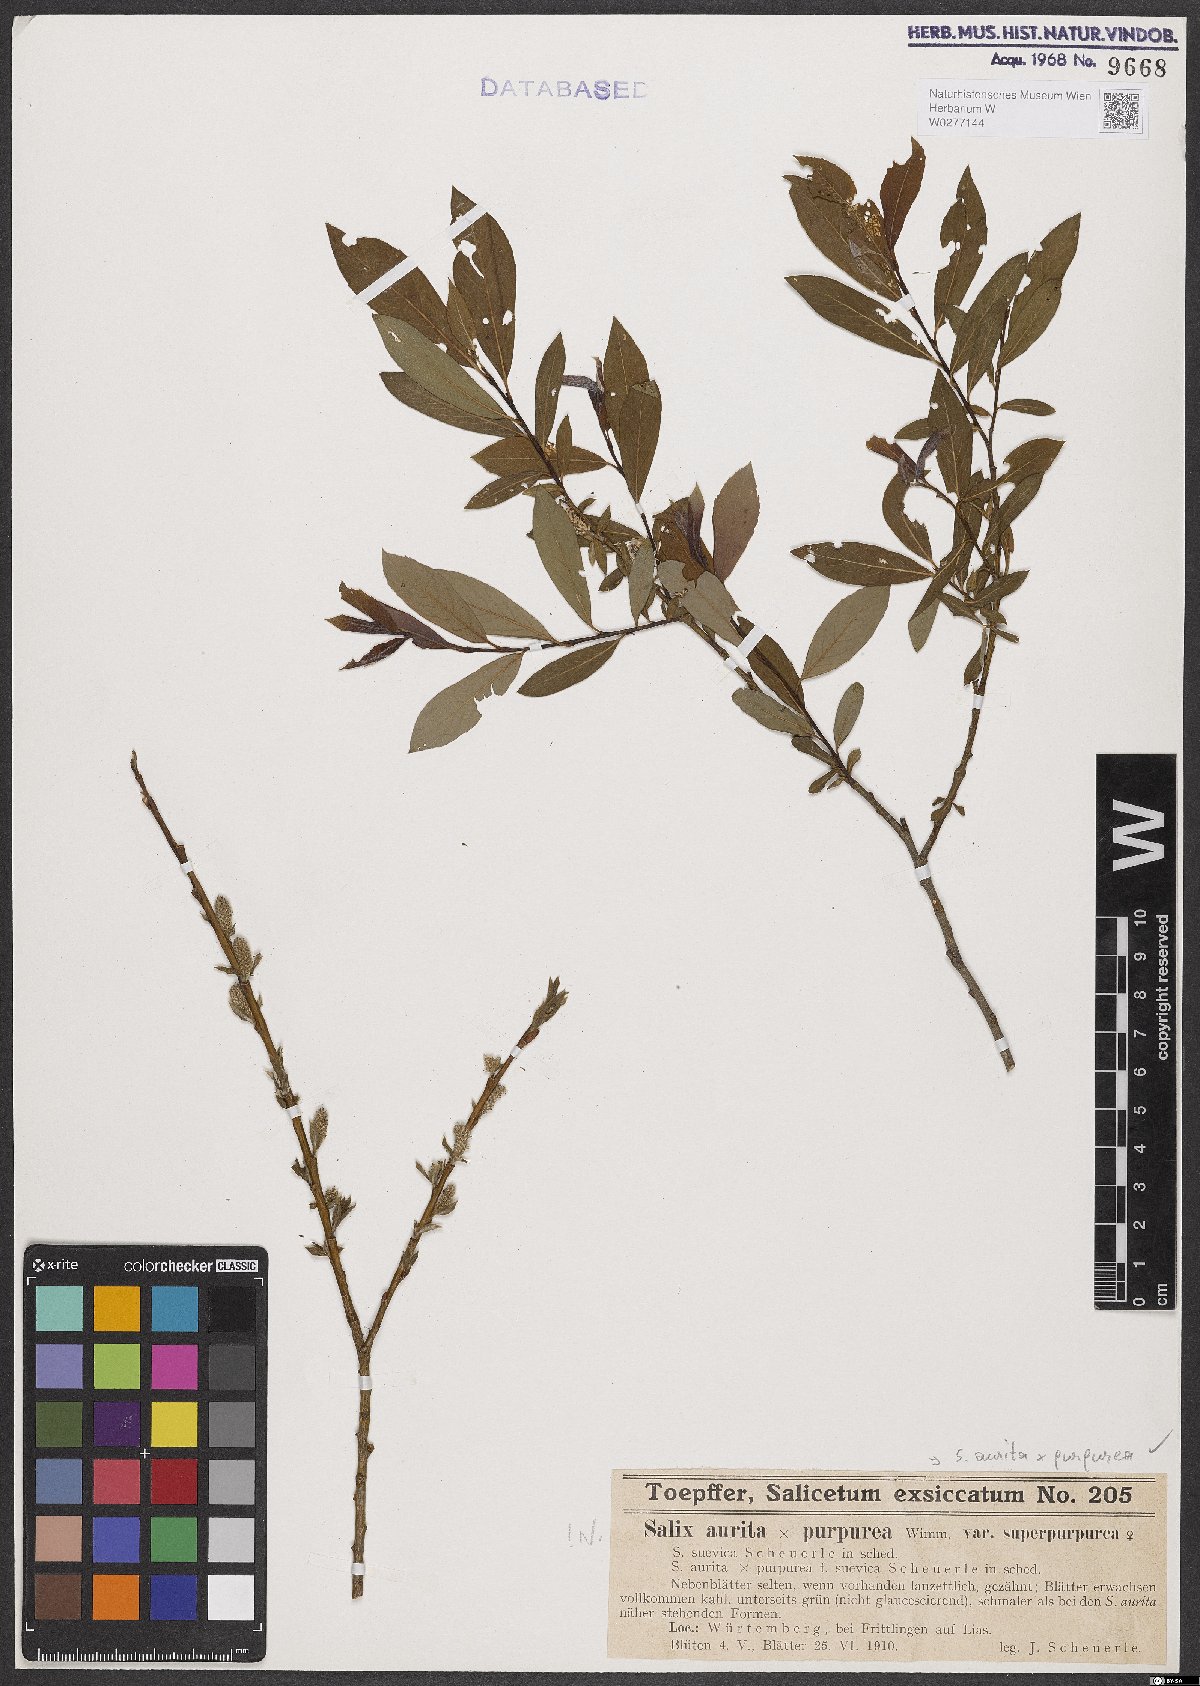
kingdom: Plantae
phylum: Tracheophyta
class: Magnoliopsida
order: Malpighiales
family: Salicaceae
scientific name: Salicaceae
